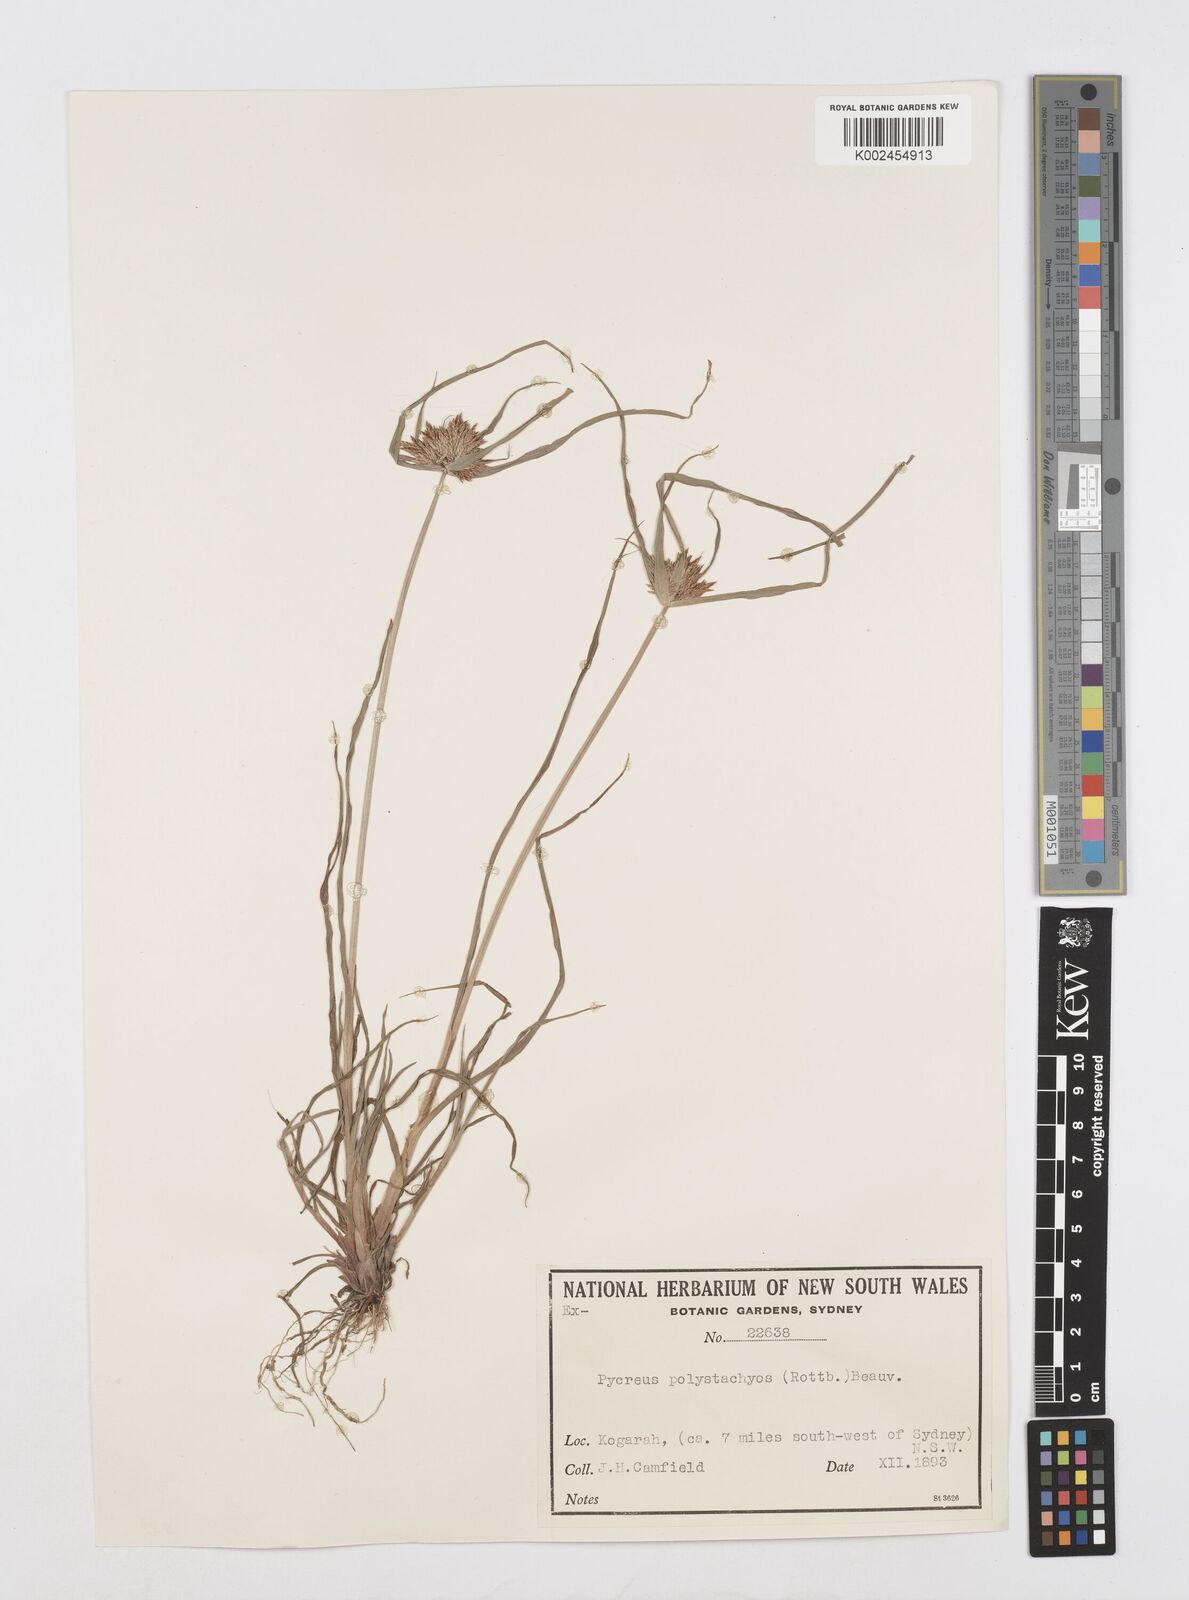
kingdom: Plantae
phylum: Tracheophyta
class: Liliopsida
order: Poales
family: Cyperaceae
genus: Cyperus
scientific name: Cyperus polystachyos
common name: Bunchy flat sedge
